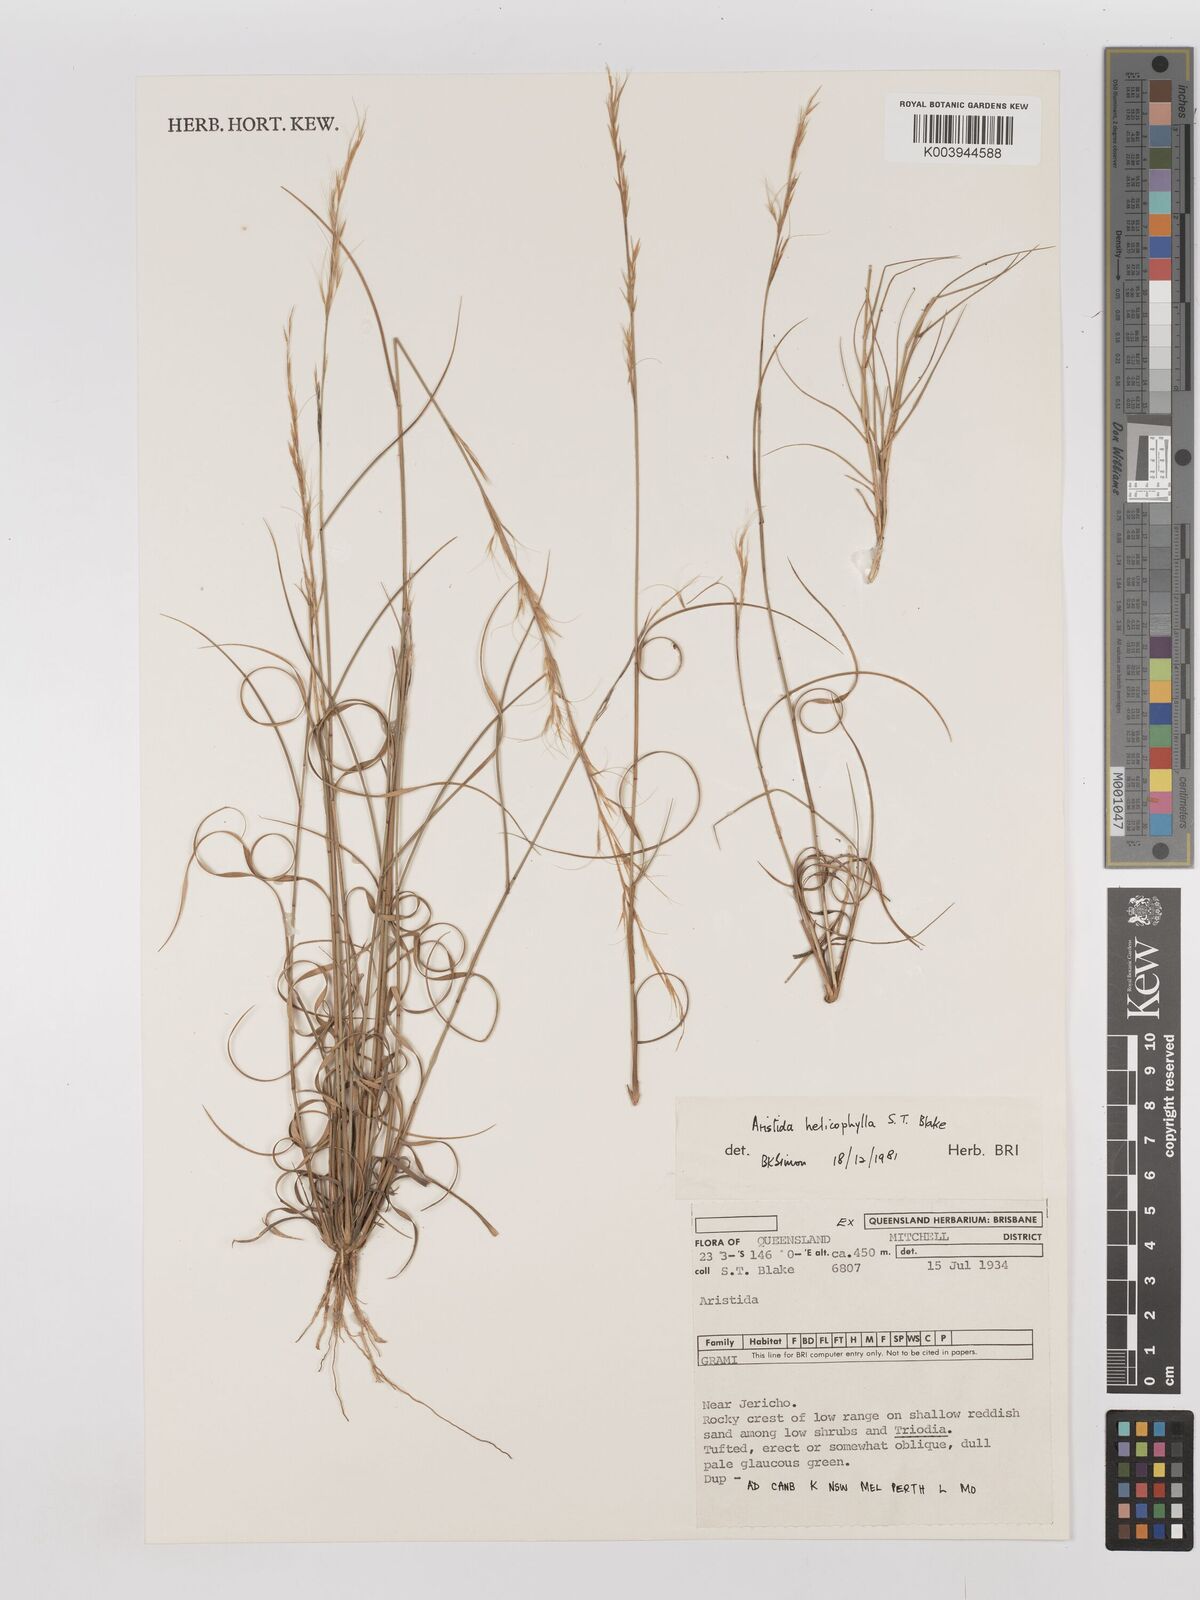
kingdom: Plantae
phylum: Tracheophyta
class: Liliopsida
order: Poales
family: Poaceae
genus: Aristida
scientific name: Aristida helicophylla
